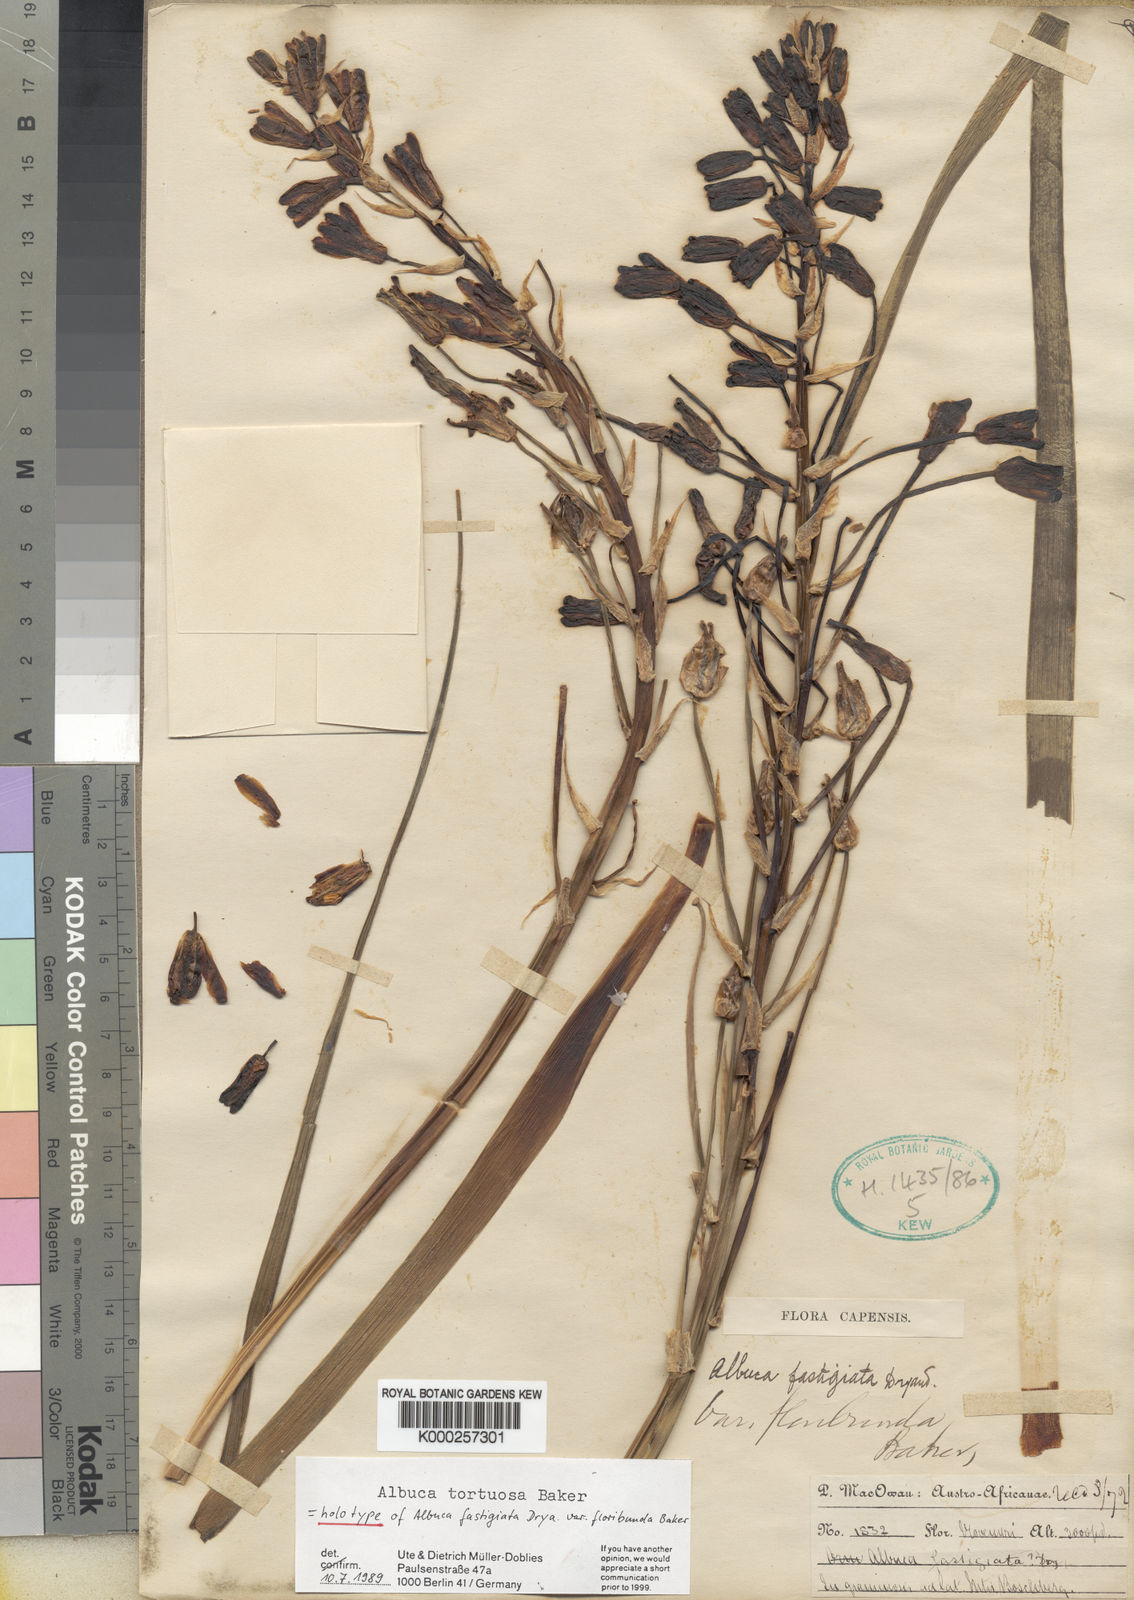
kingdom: Plantae
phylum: Tracheophyta
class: Liliopsida
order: Asparagales
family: Asparagaceae
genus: Albuca
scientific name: Albuca tortuosa
